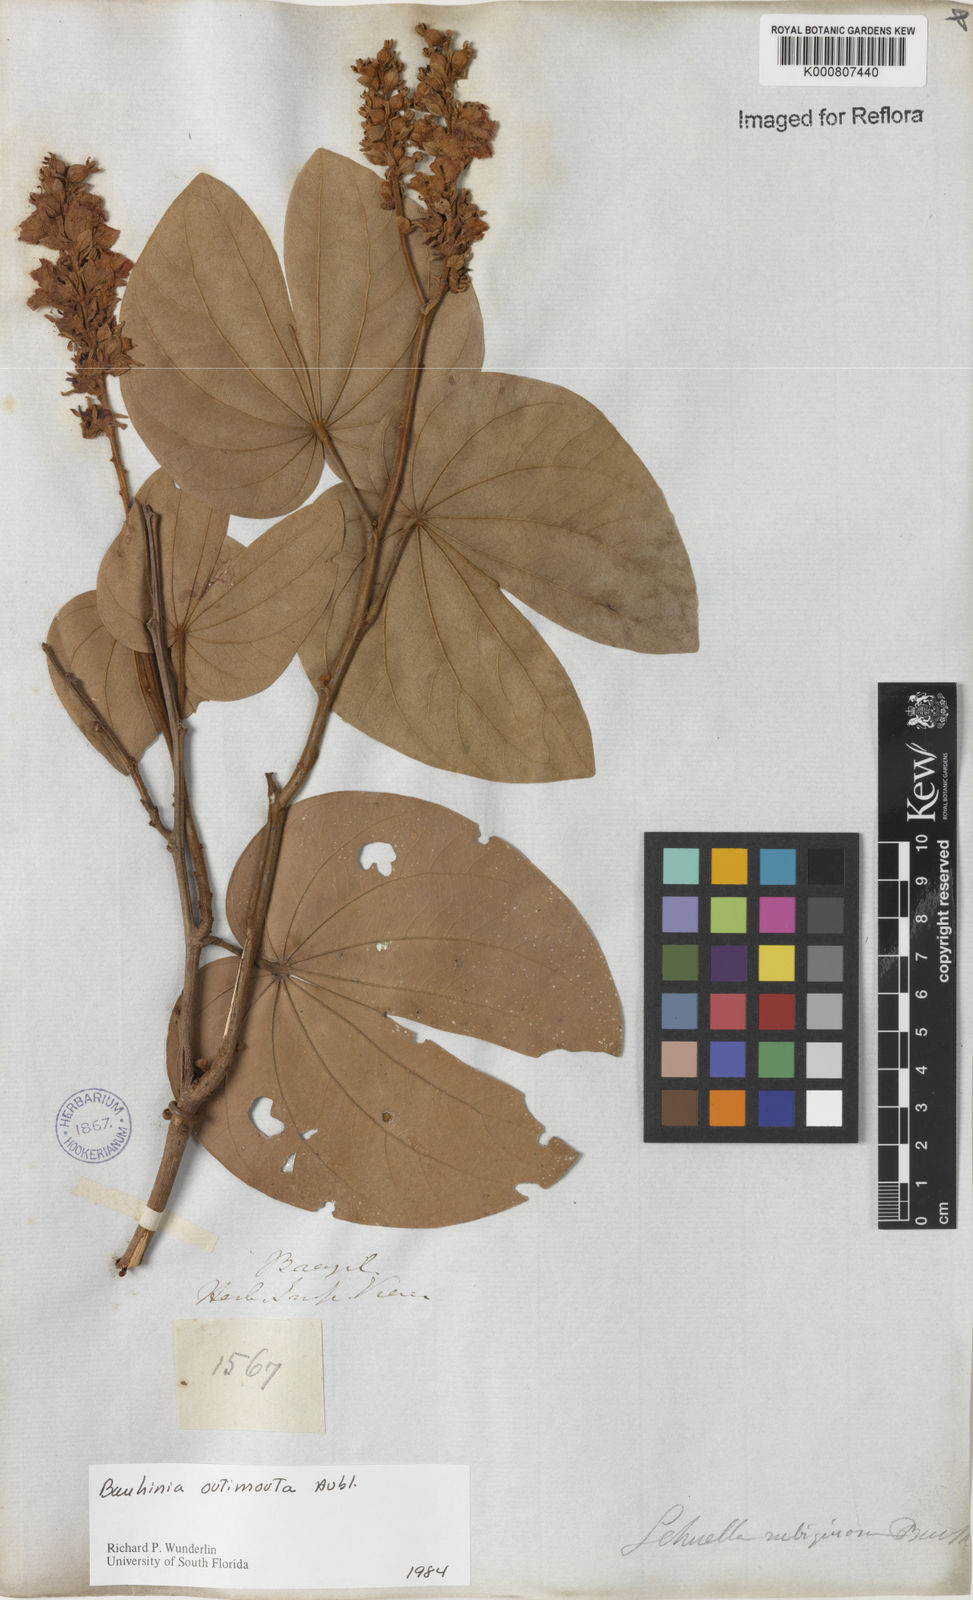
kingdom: Plantae
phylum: Tracheophyta
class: Magnoliopsida
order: Fabales
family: Fabaceae
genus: Schnella
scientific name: Schnella outimouta
